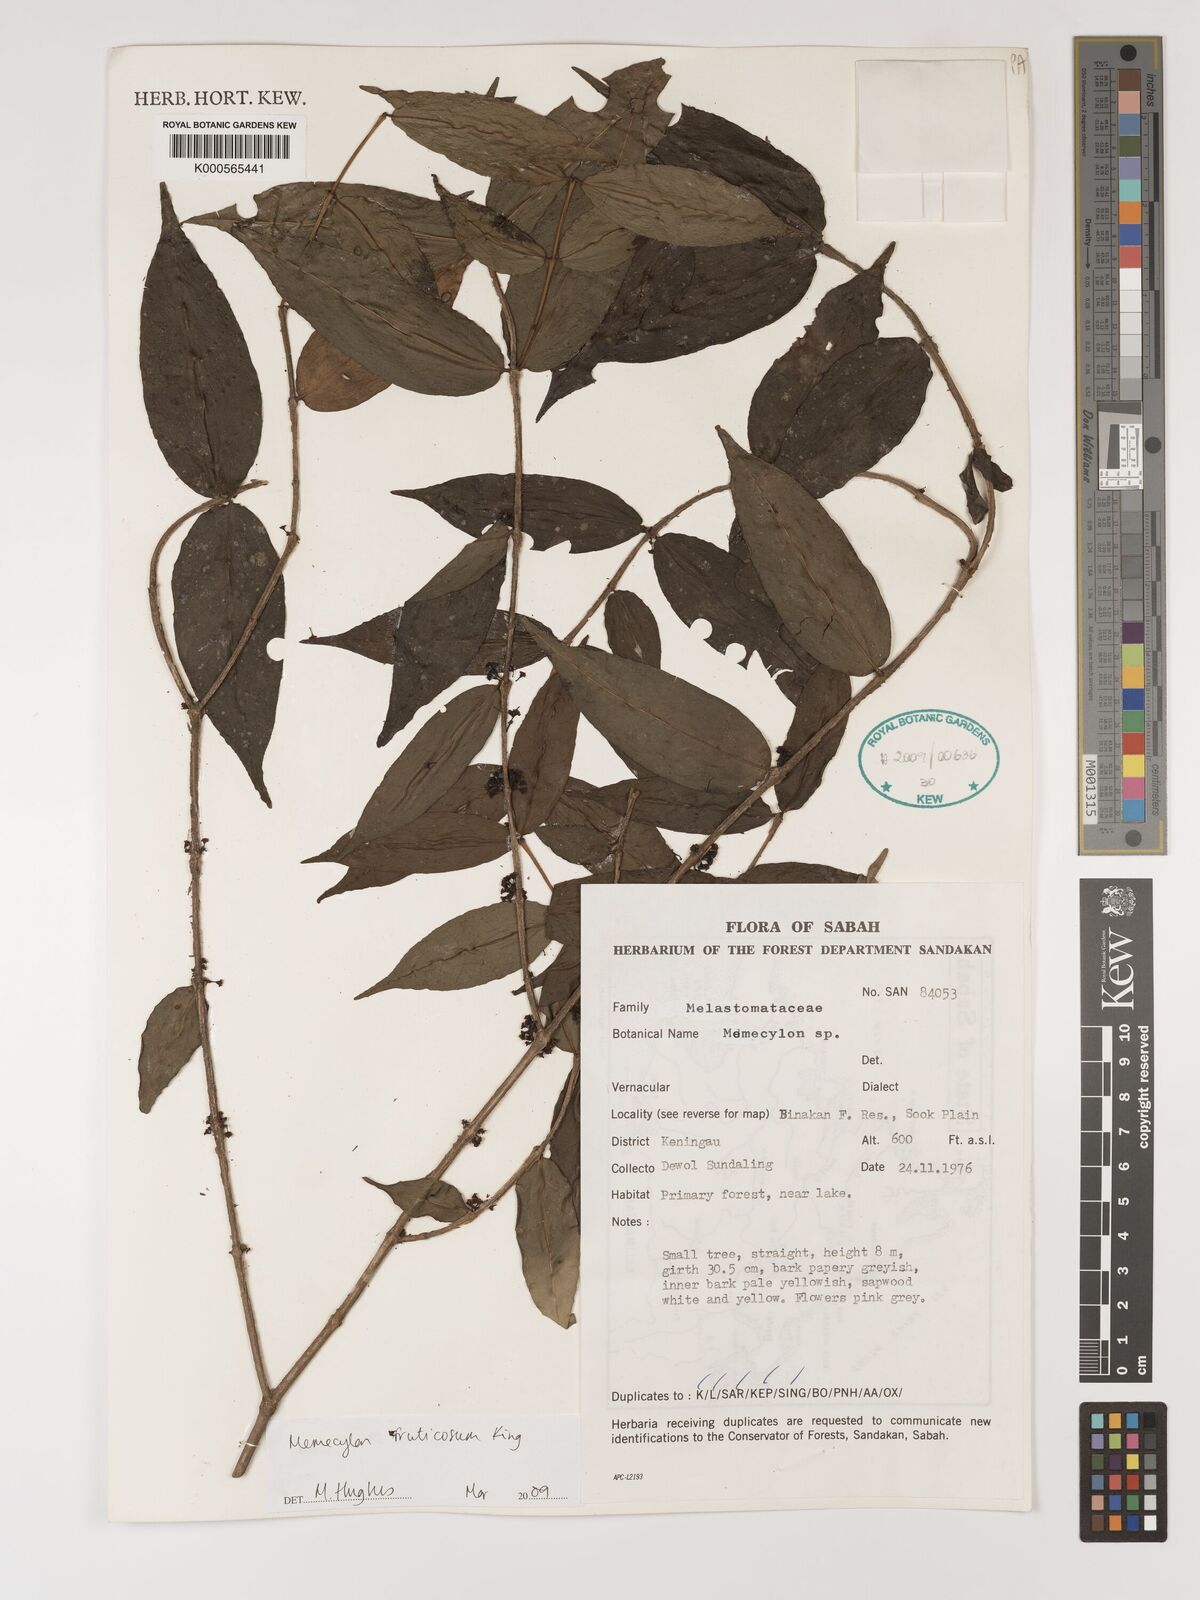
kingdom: Plantae
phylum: Tracheophyta
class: Magnoliopsida
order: Myrtales
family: Melastomataceae
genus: Memecylon
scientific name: Memecylon fruticosum
